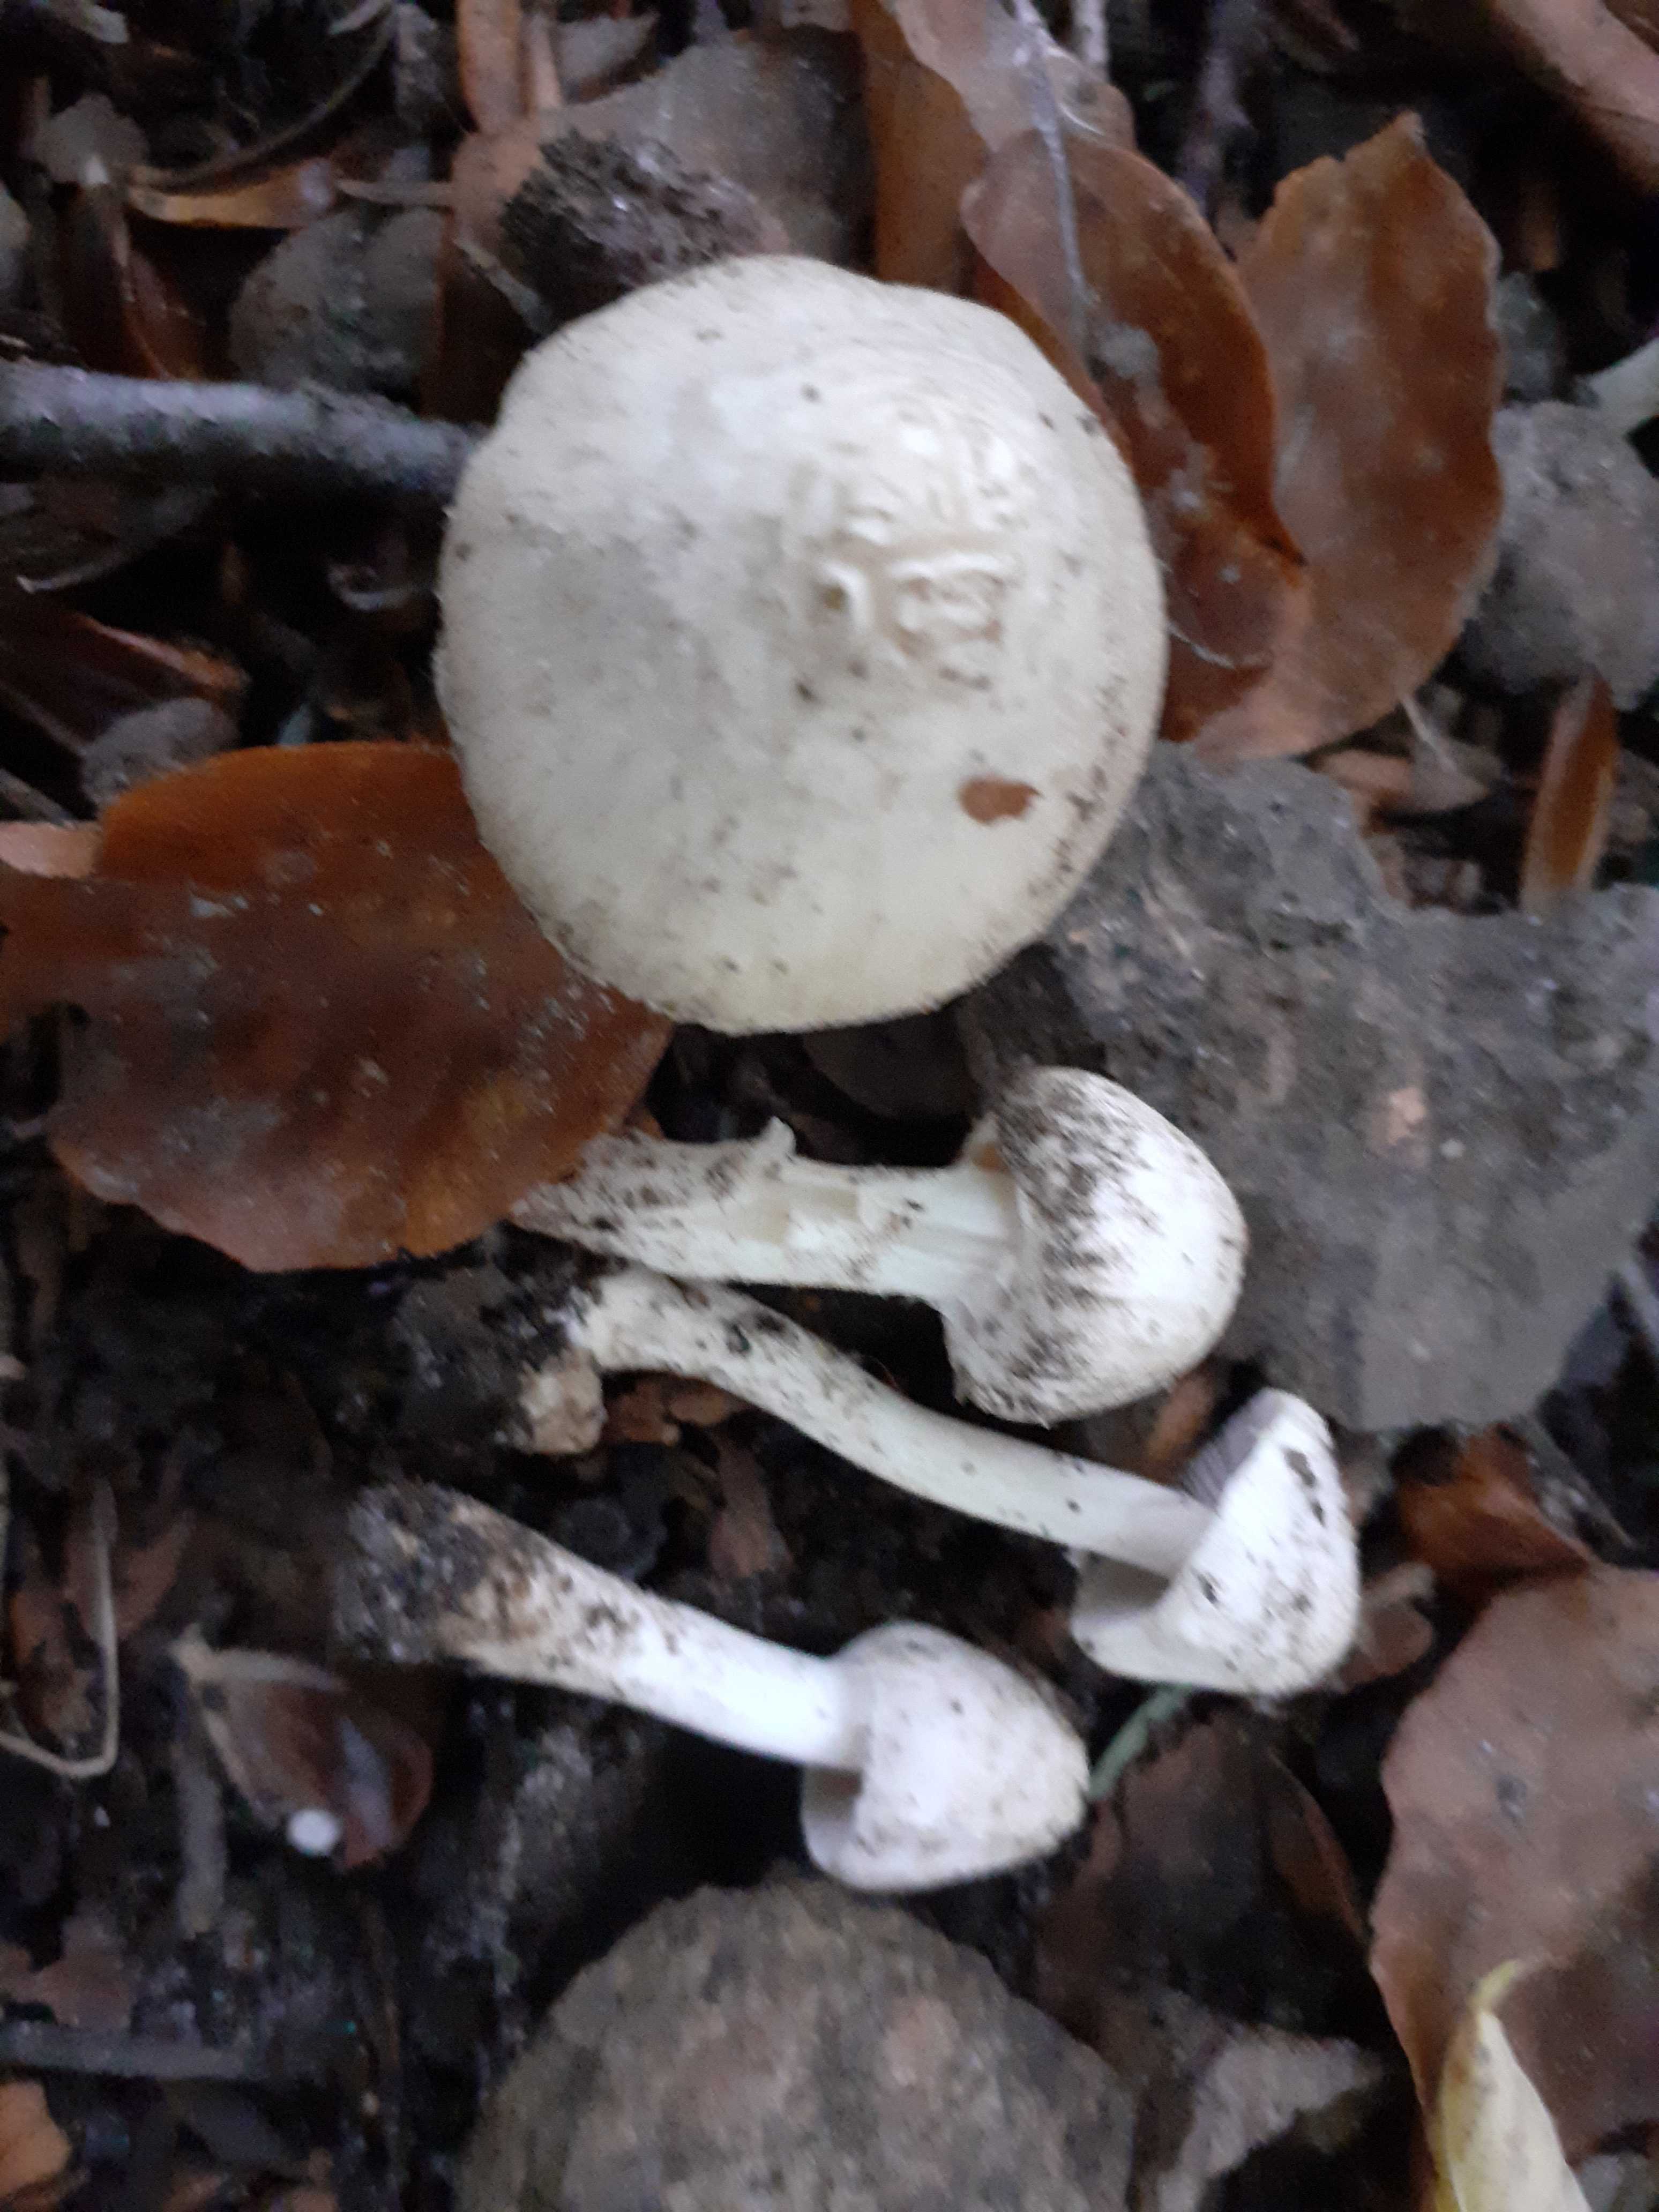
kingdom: Fungi
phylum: Basidiomycota
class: Agaricomycetes
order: Agaricales
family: Inocybaceae
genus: Inocybe
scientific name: Inocybe
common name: almindelig trævlhat
